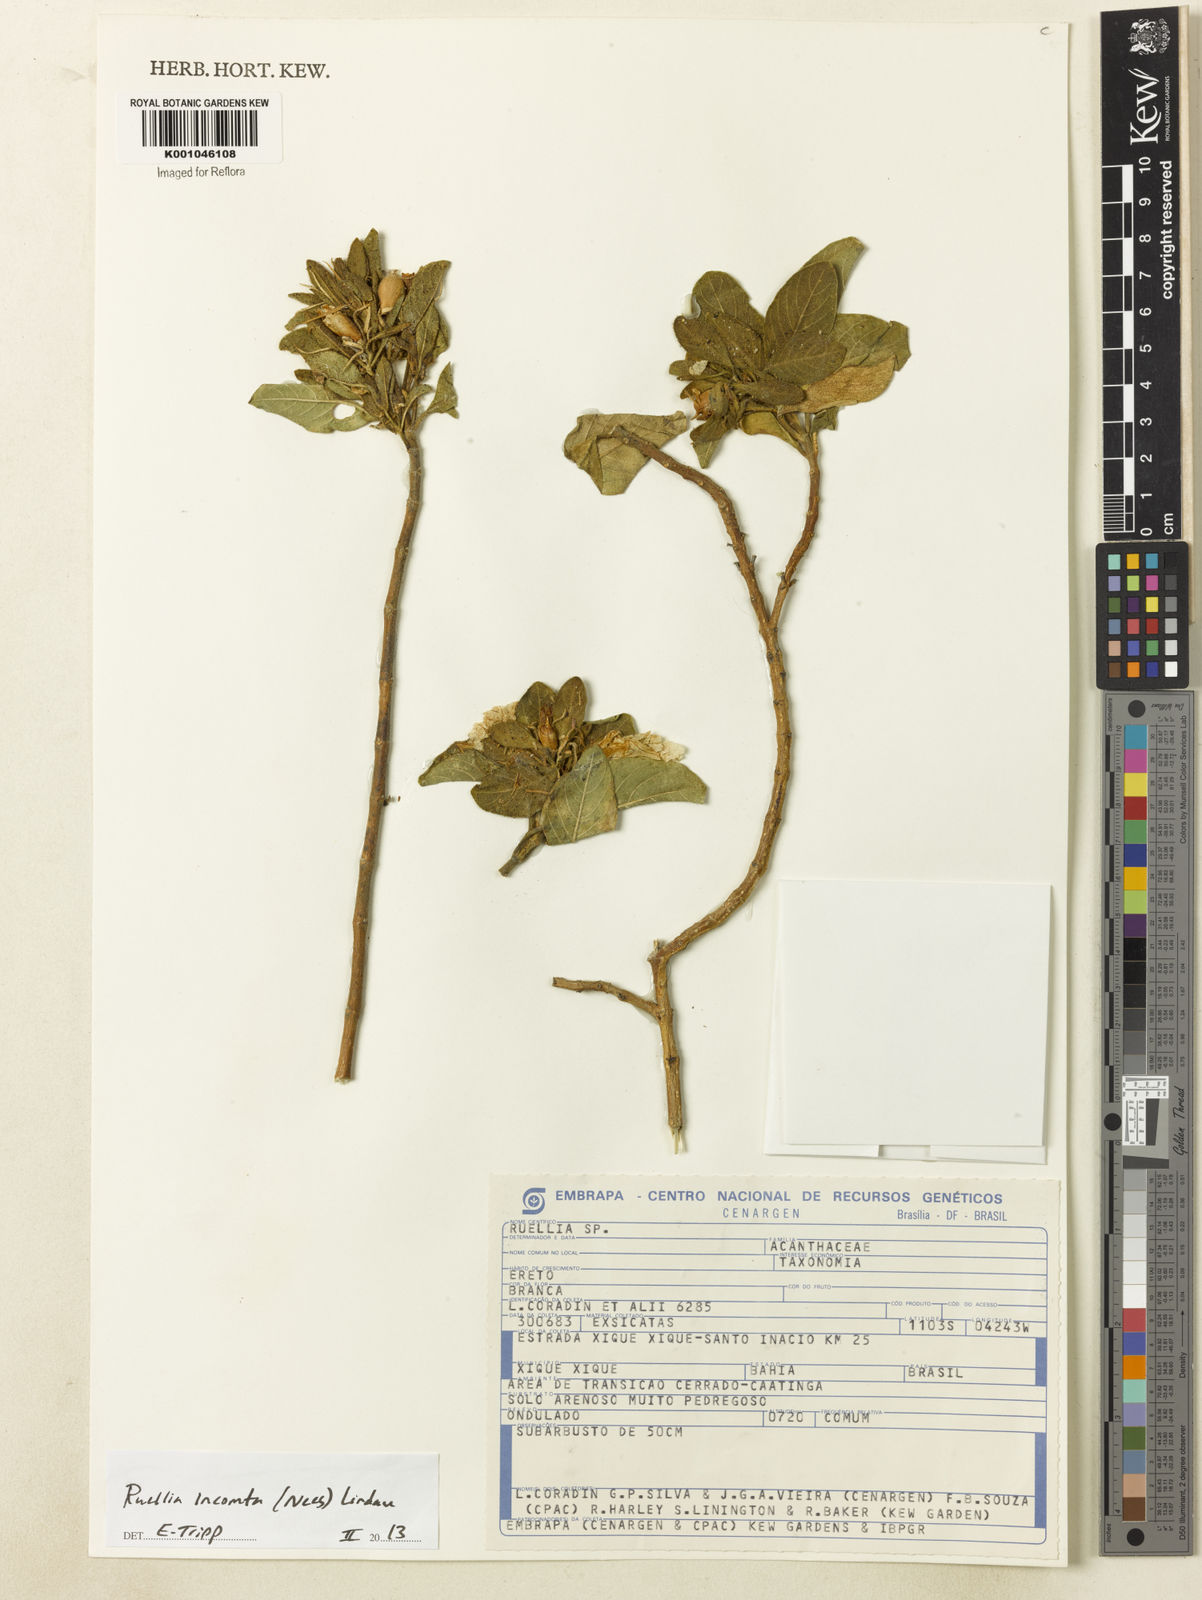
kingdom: Plantae
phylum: Tracheophyta
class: Magnoliopsida
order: Lamiales
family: Acanthaceae
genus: Ruellia
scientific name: Ruellia
